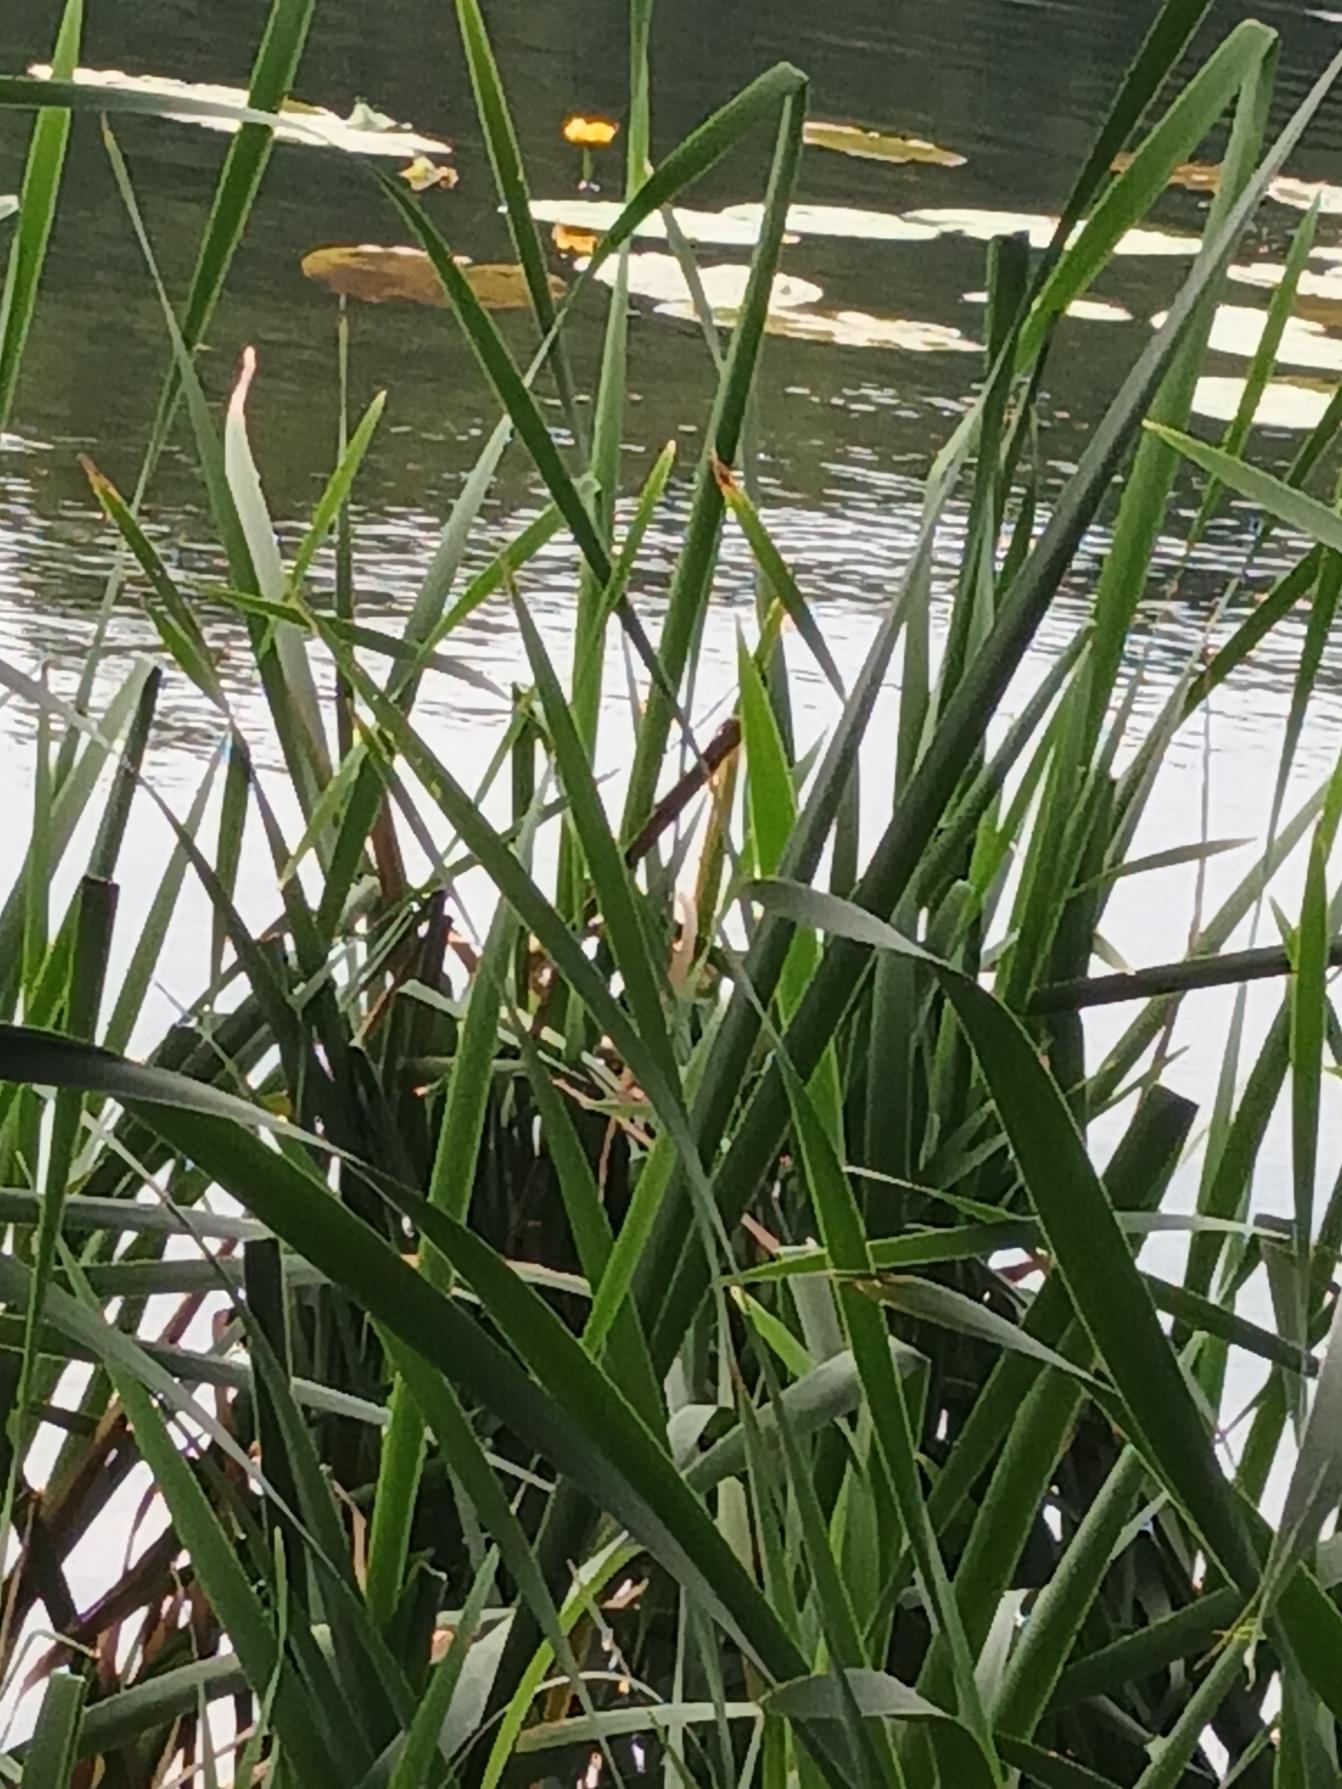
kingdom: Plantae
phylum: Tracheophyta
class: Magnoliopsida
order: Nymphaeales
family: Nymphaeaceae
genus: Nuphar
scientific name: Nuphar lutea
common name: Gul åkande
